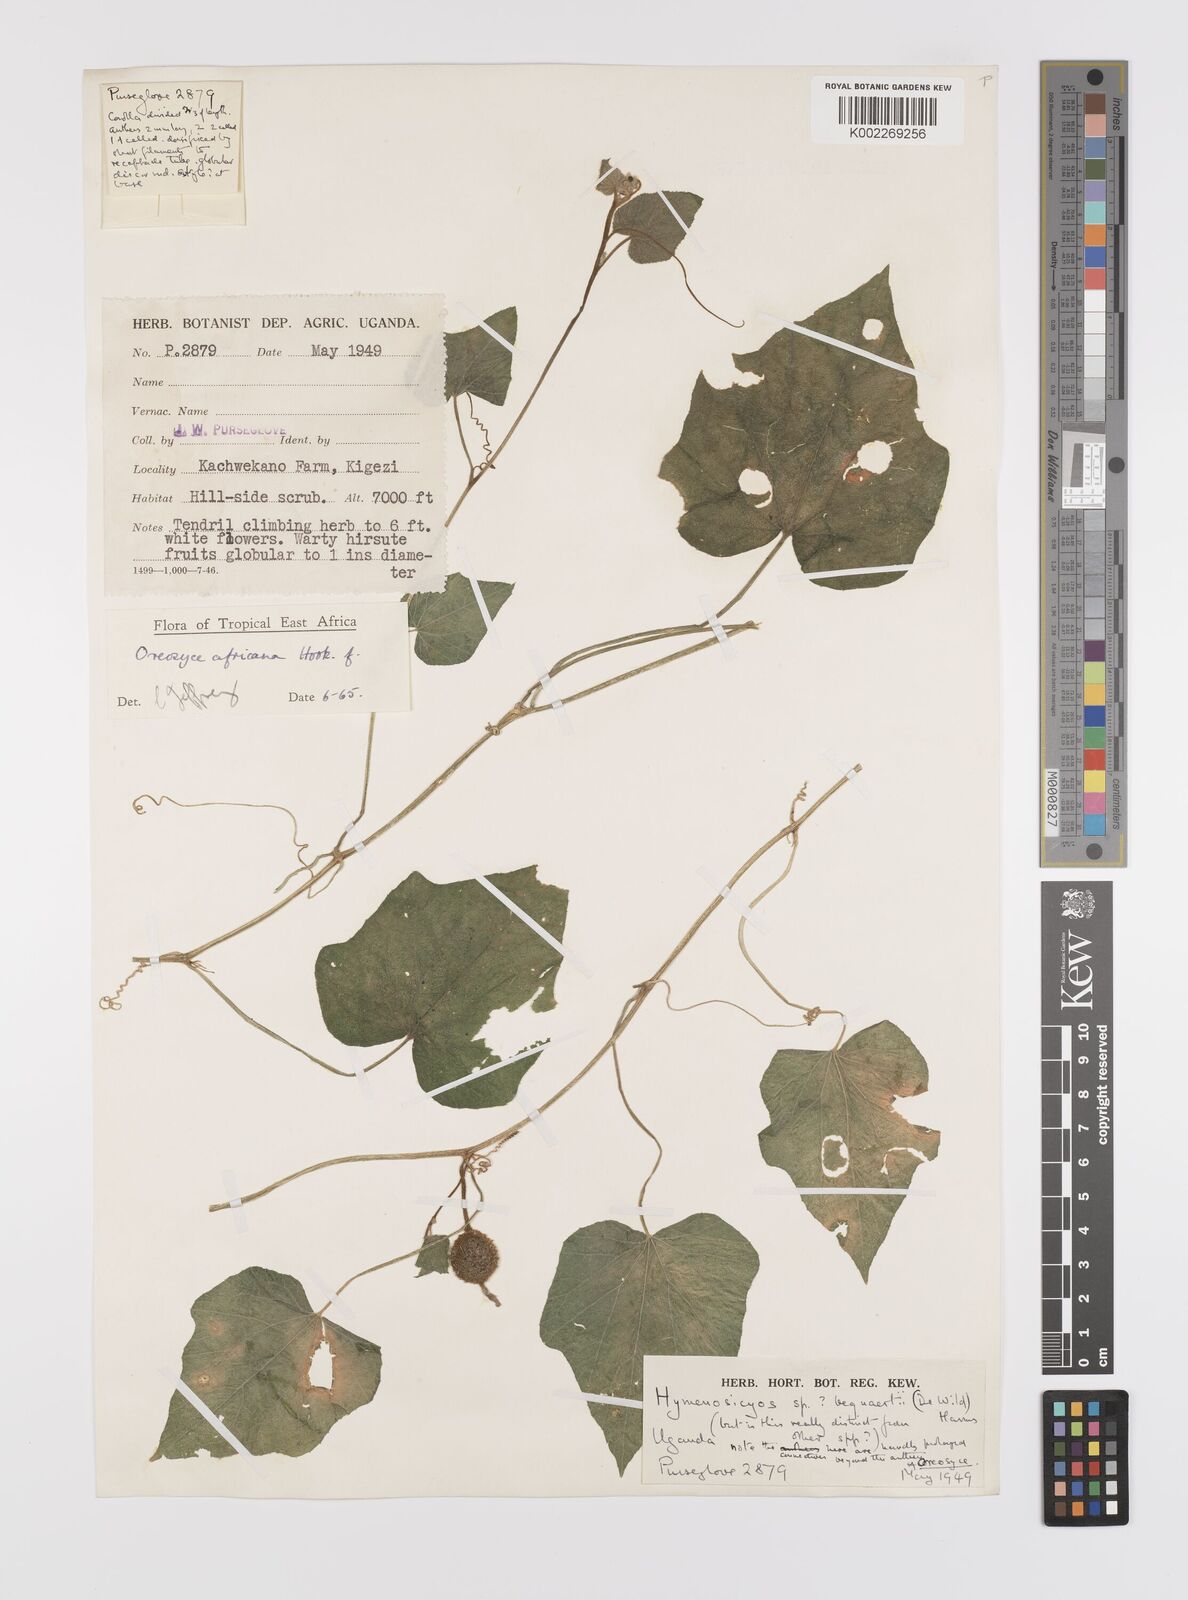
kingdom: Plantae
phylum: Tracheophyta
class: Magnoliopsida
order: Cucurbitales
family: Cucurbitaceae
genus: Cucumis
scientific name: Cucumis oreosyce
